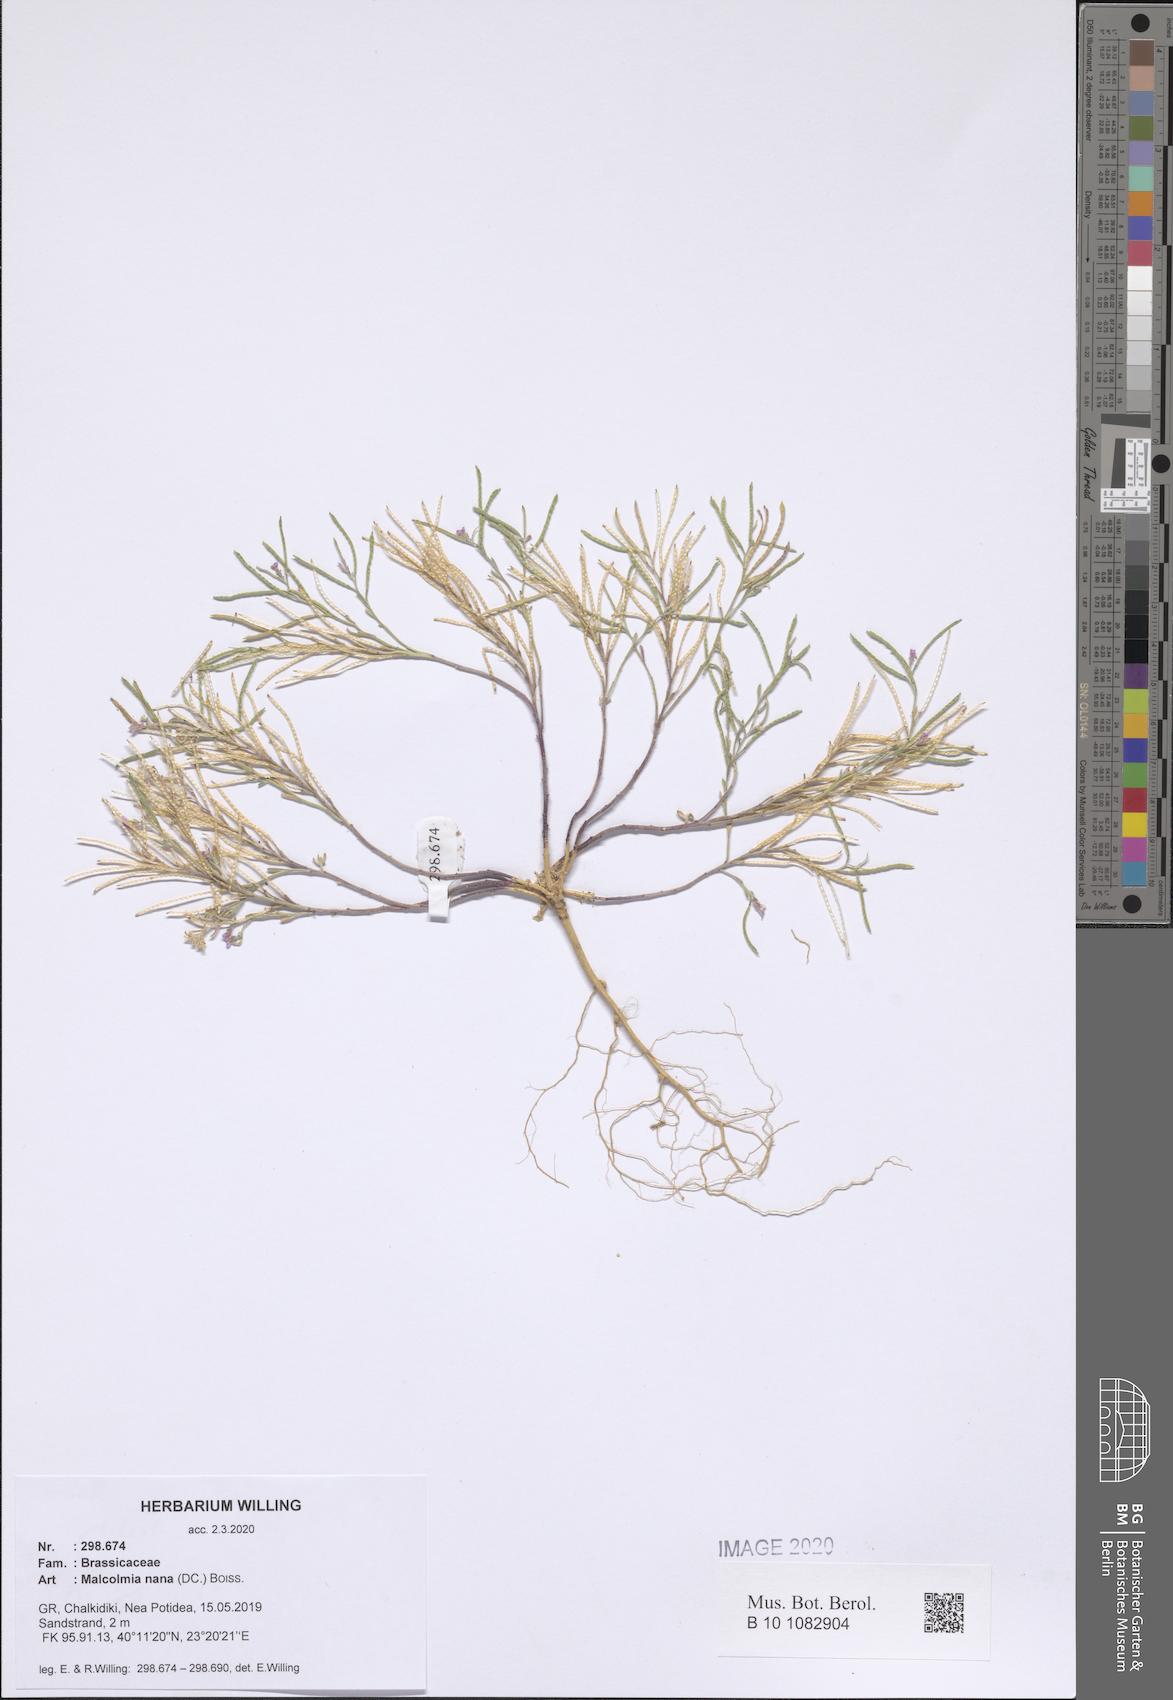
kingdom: Plantae
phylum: Tracheophyta
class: Magnoliopsida
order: Brassicales
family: Brassicaceae
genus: Maresia
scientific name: Maresia nana
